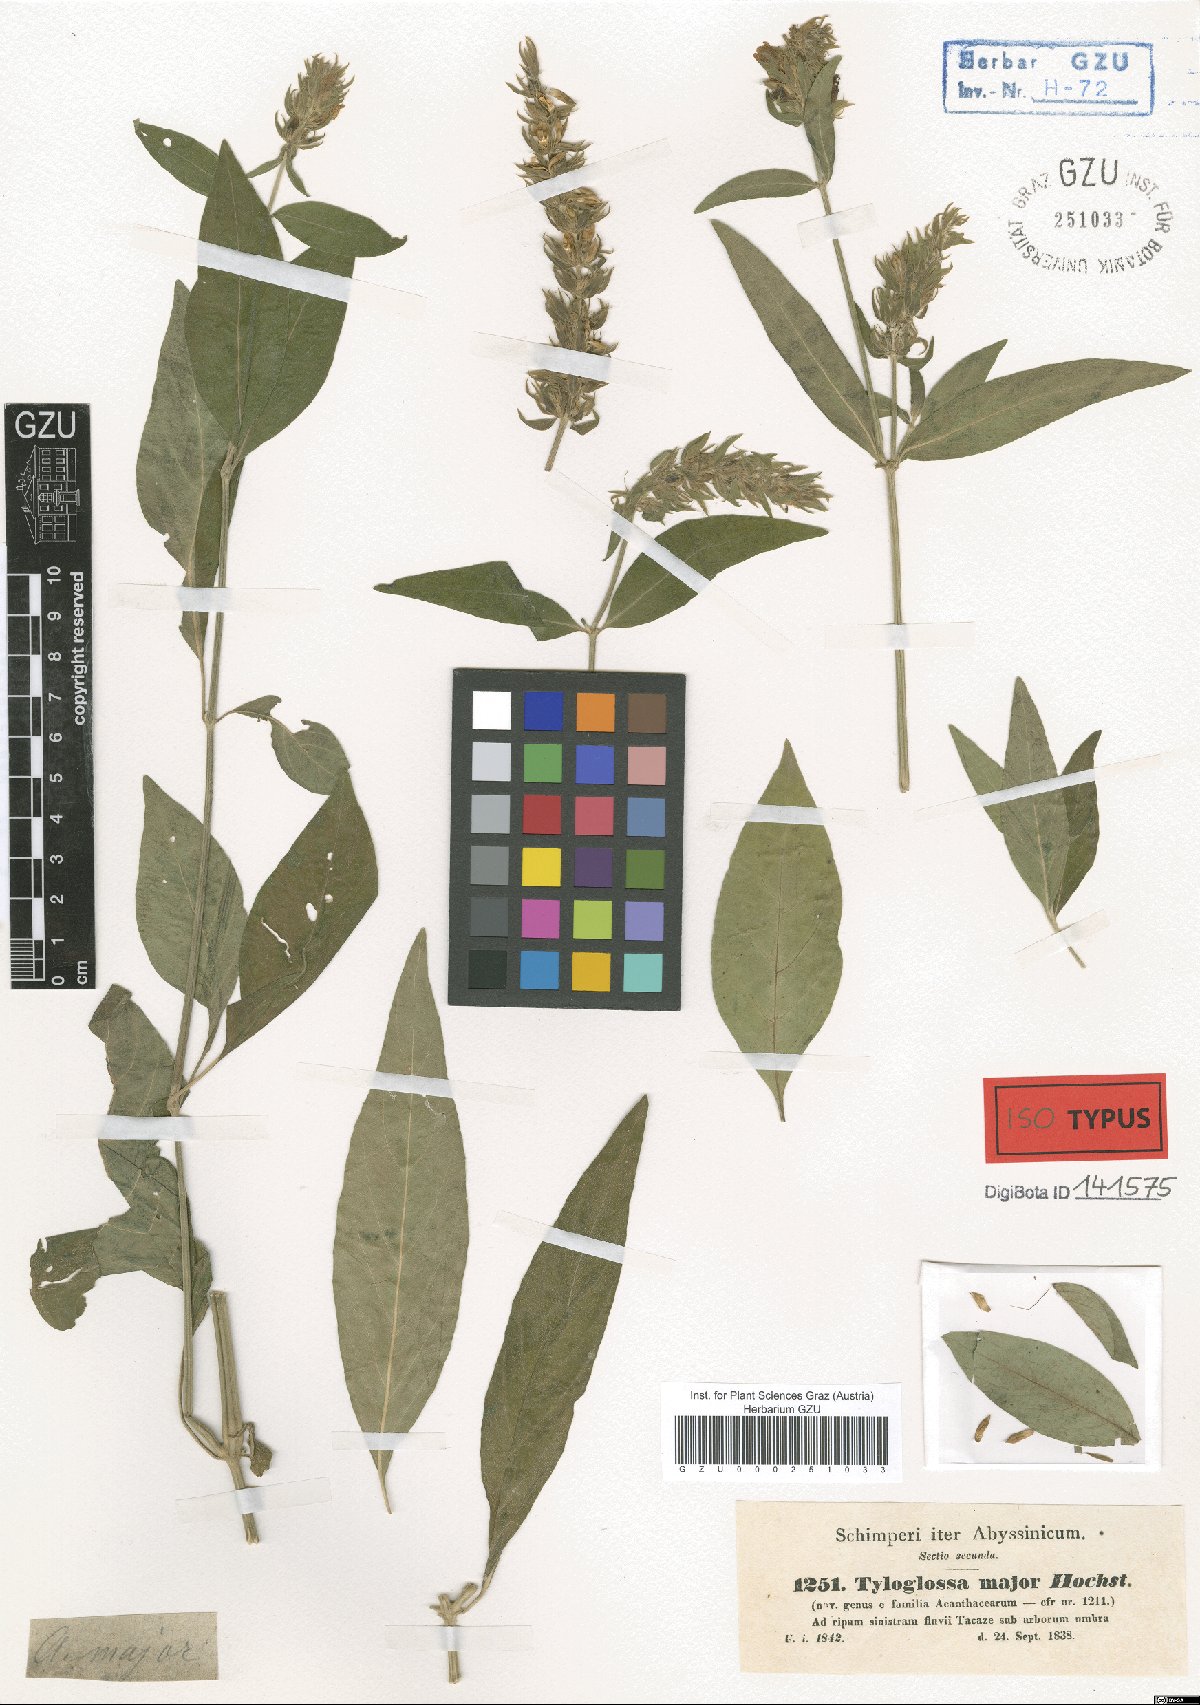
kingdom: Plantae
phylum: Tracheophyta
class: Magnoliopsida
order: Lamiales
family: Acanthaceae
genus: Justicia
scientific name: Justicia flava
